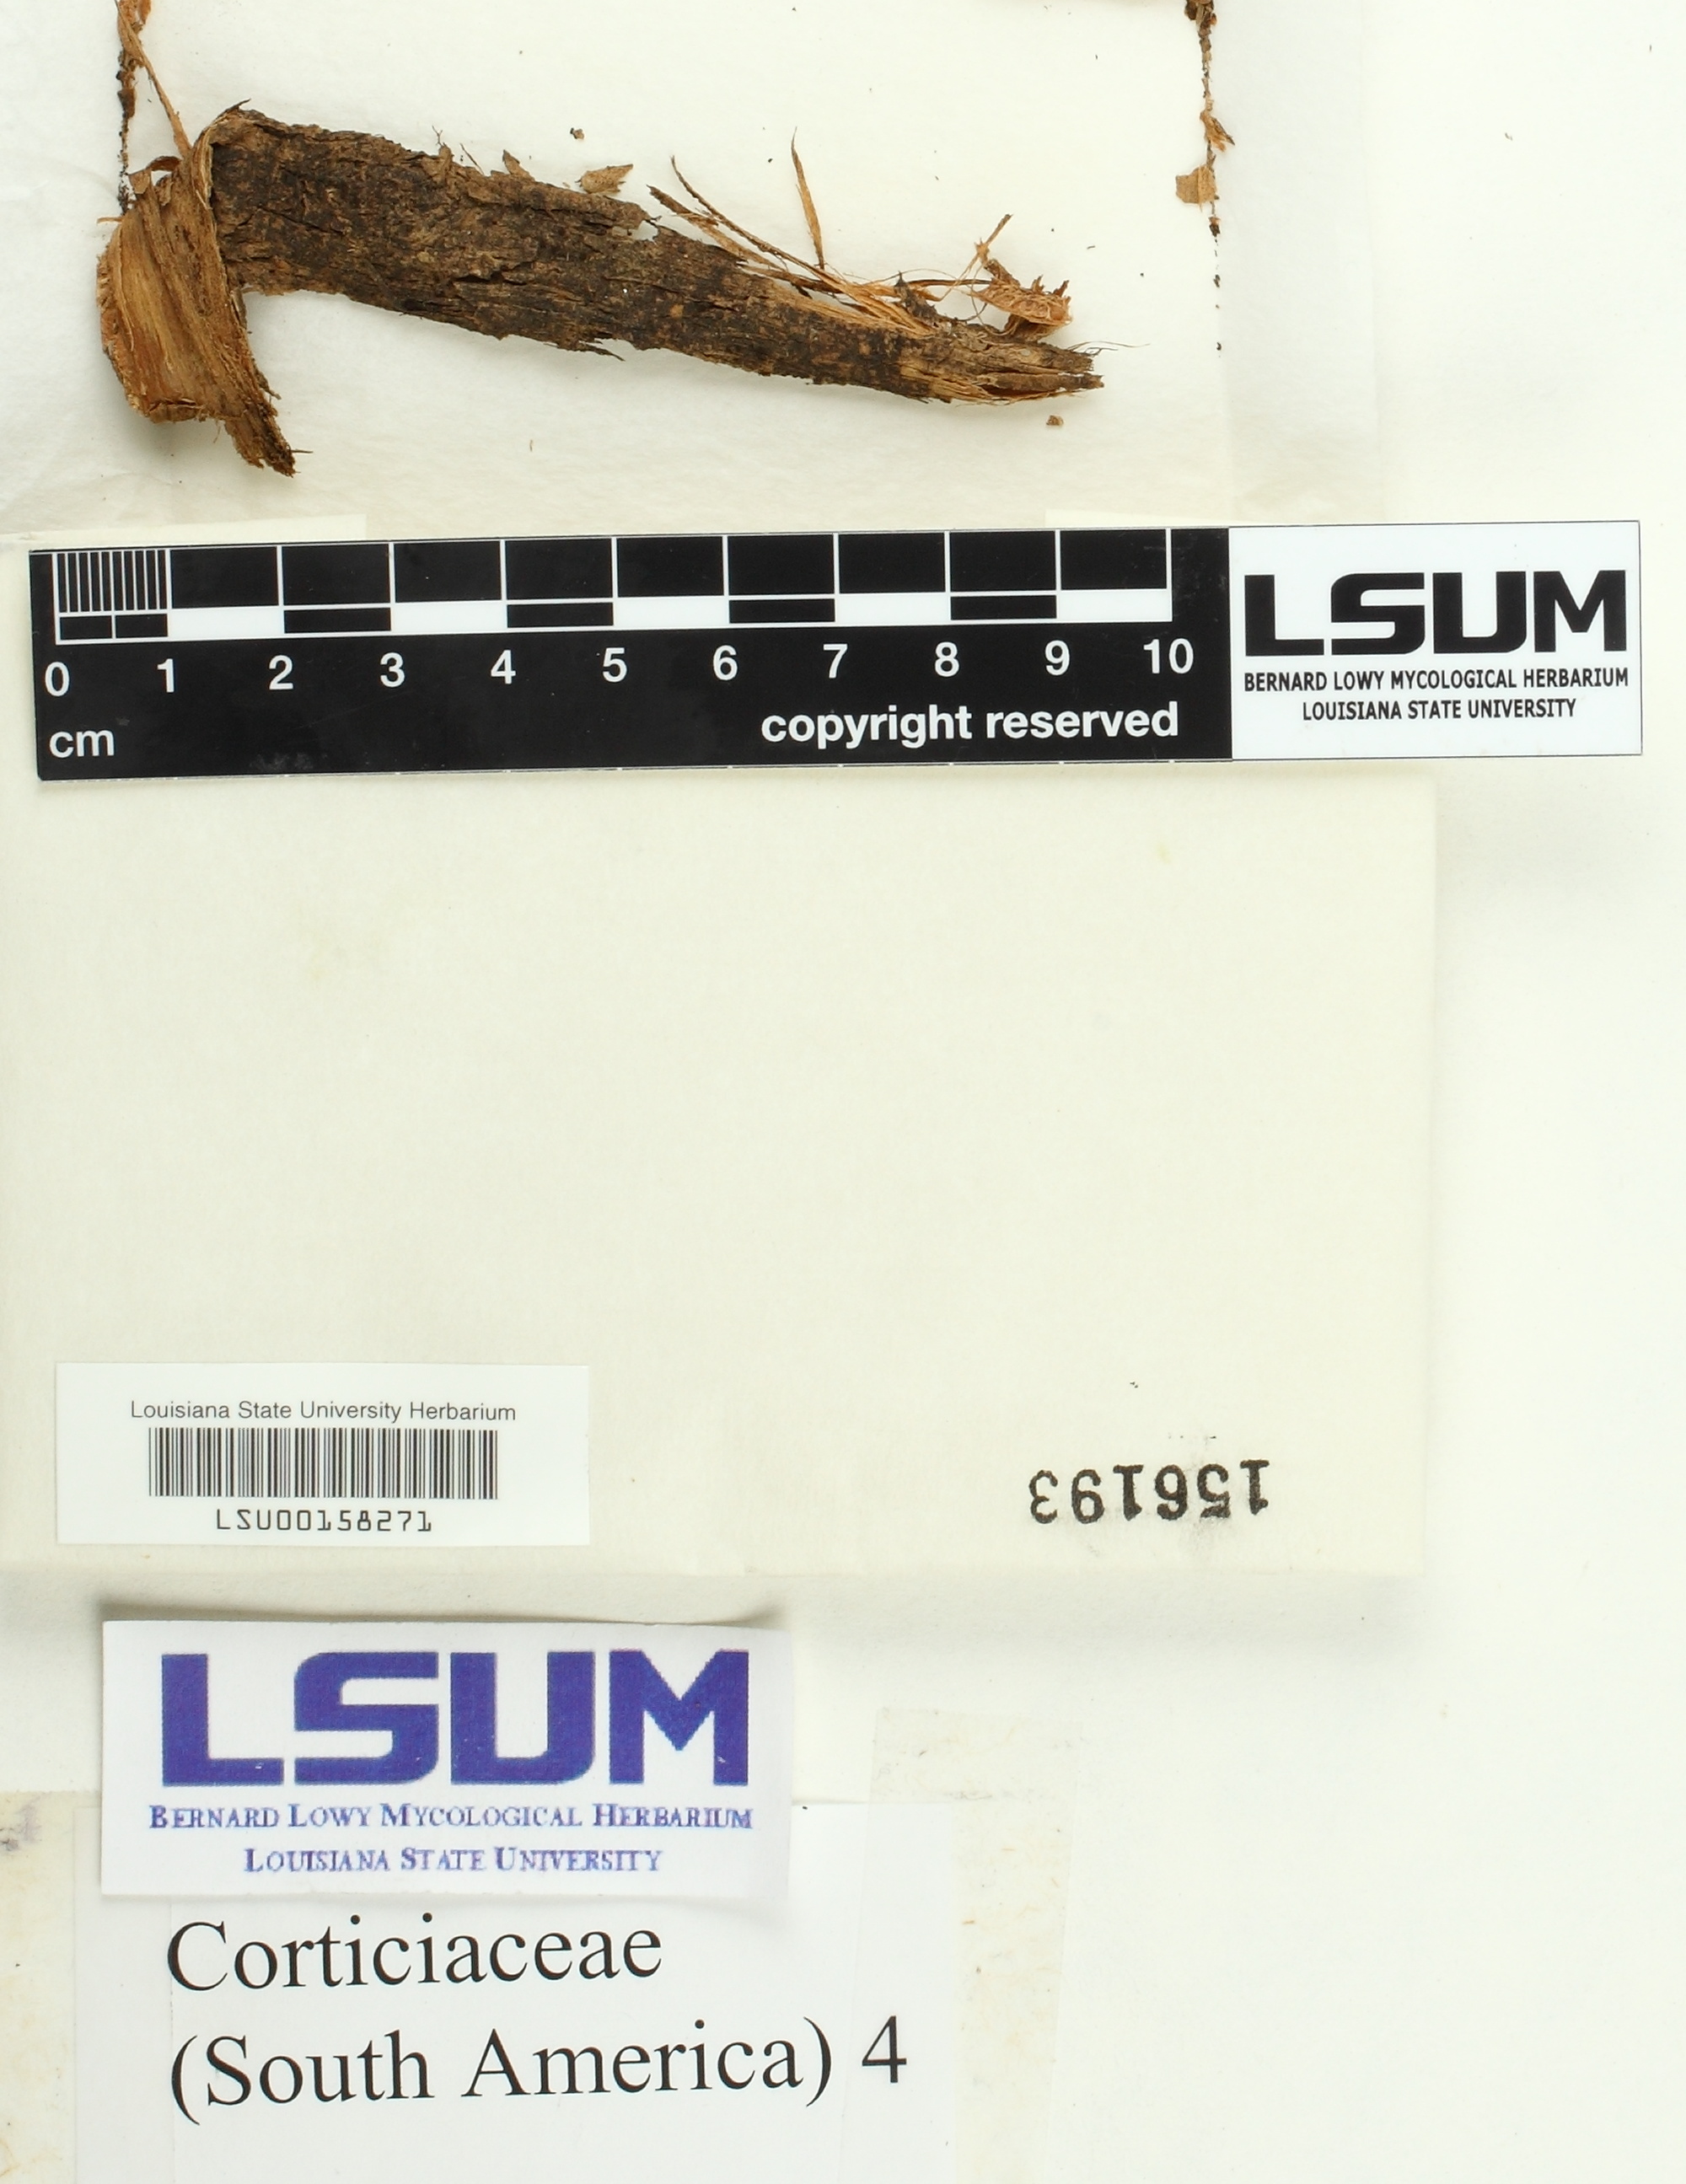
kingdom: Fungi
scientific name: Fungi
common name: Fungi
